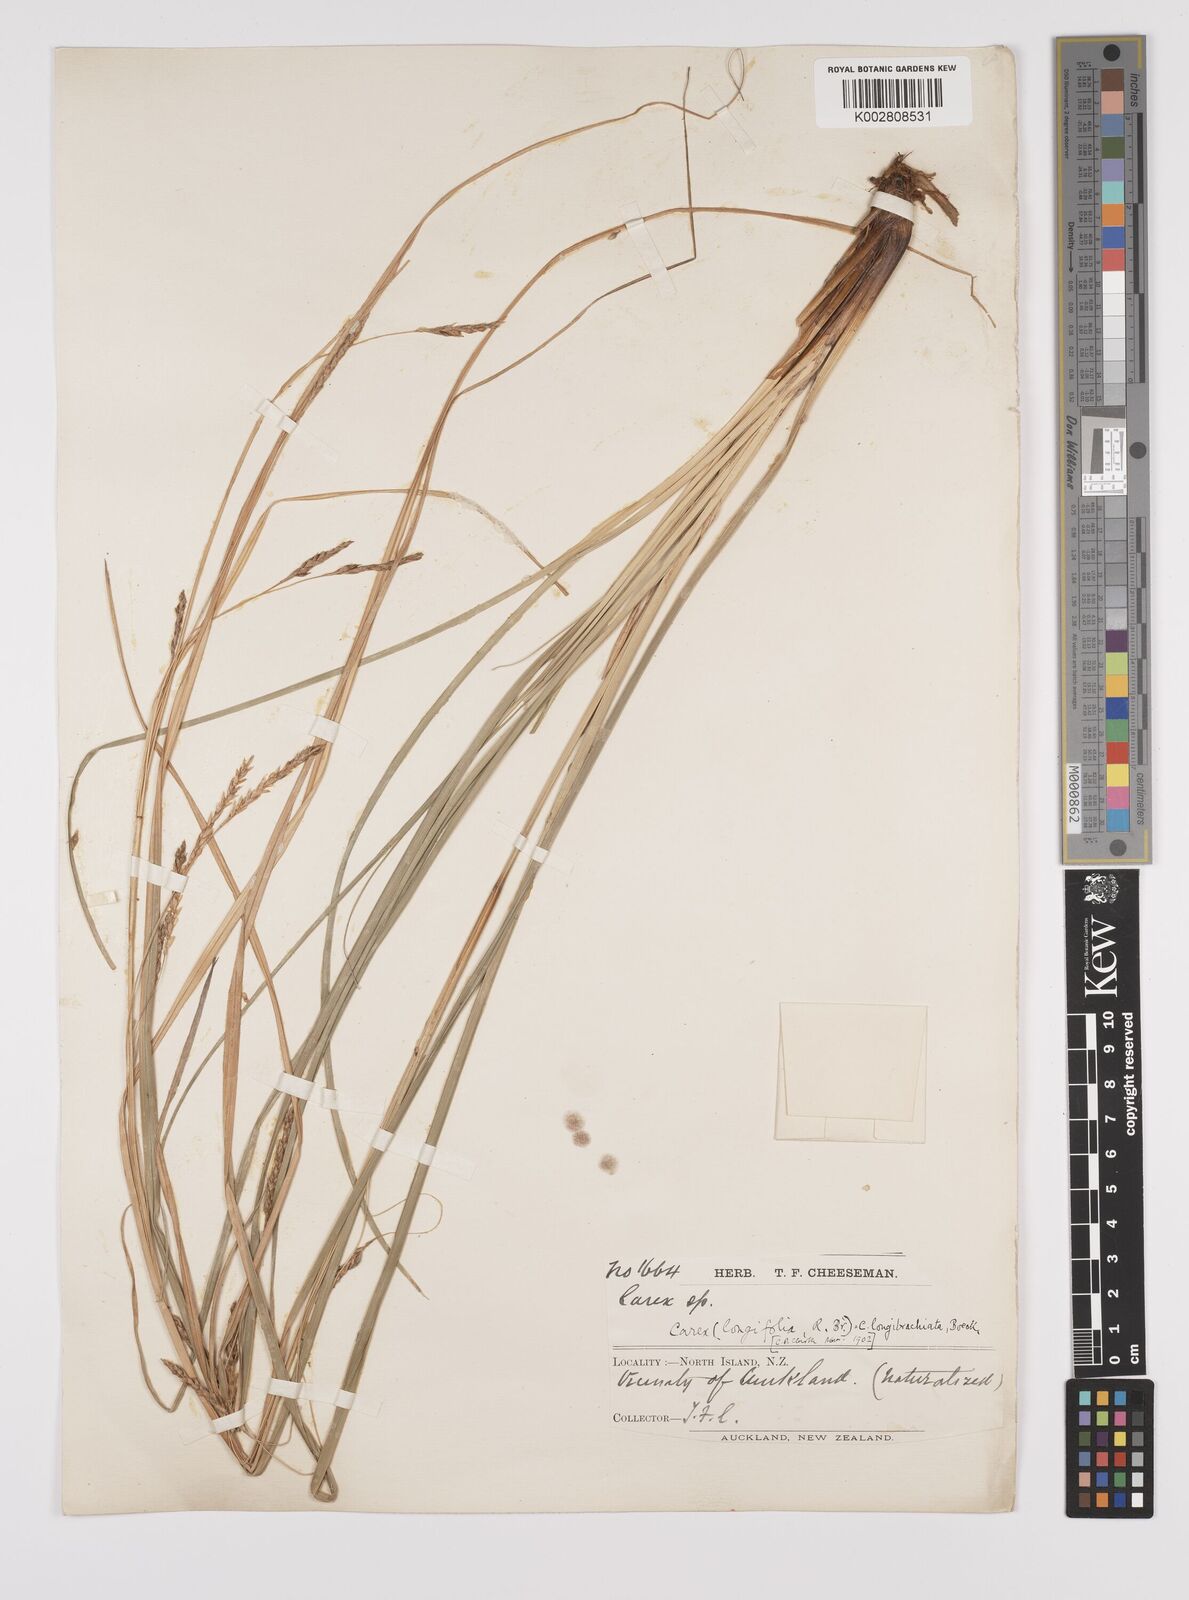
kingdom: Plantae
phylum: Tracheophyta
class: Liliopsida
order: Poales
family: Cyperaceae
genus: Carex
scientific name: Carex
